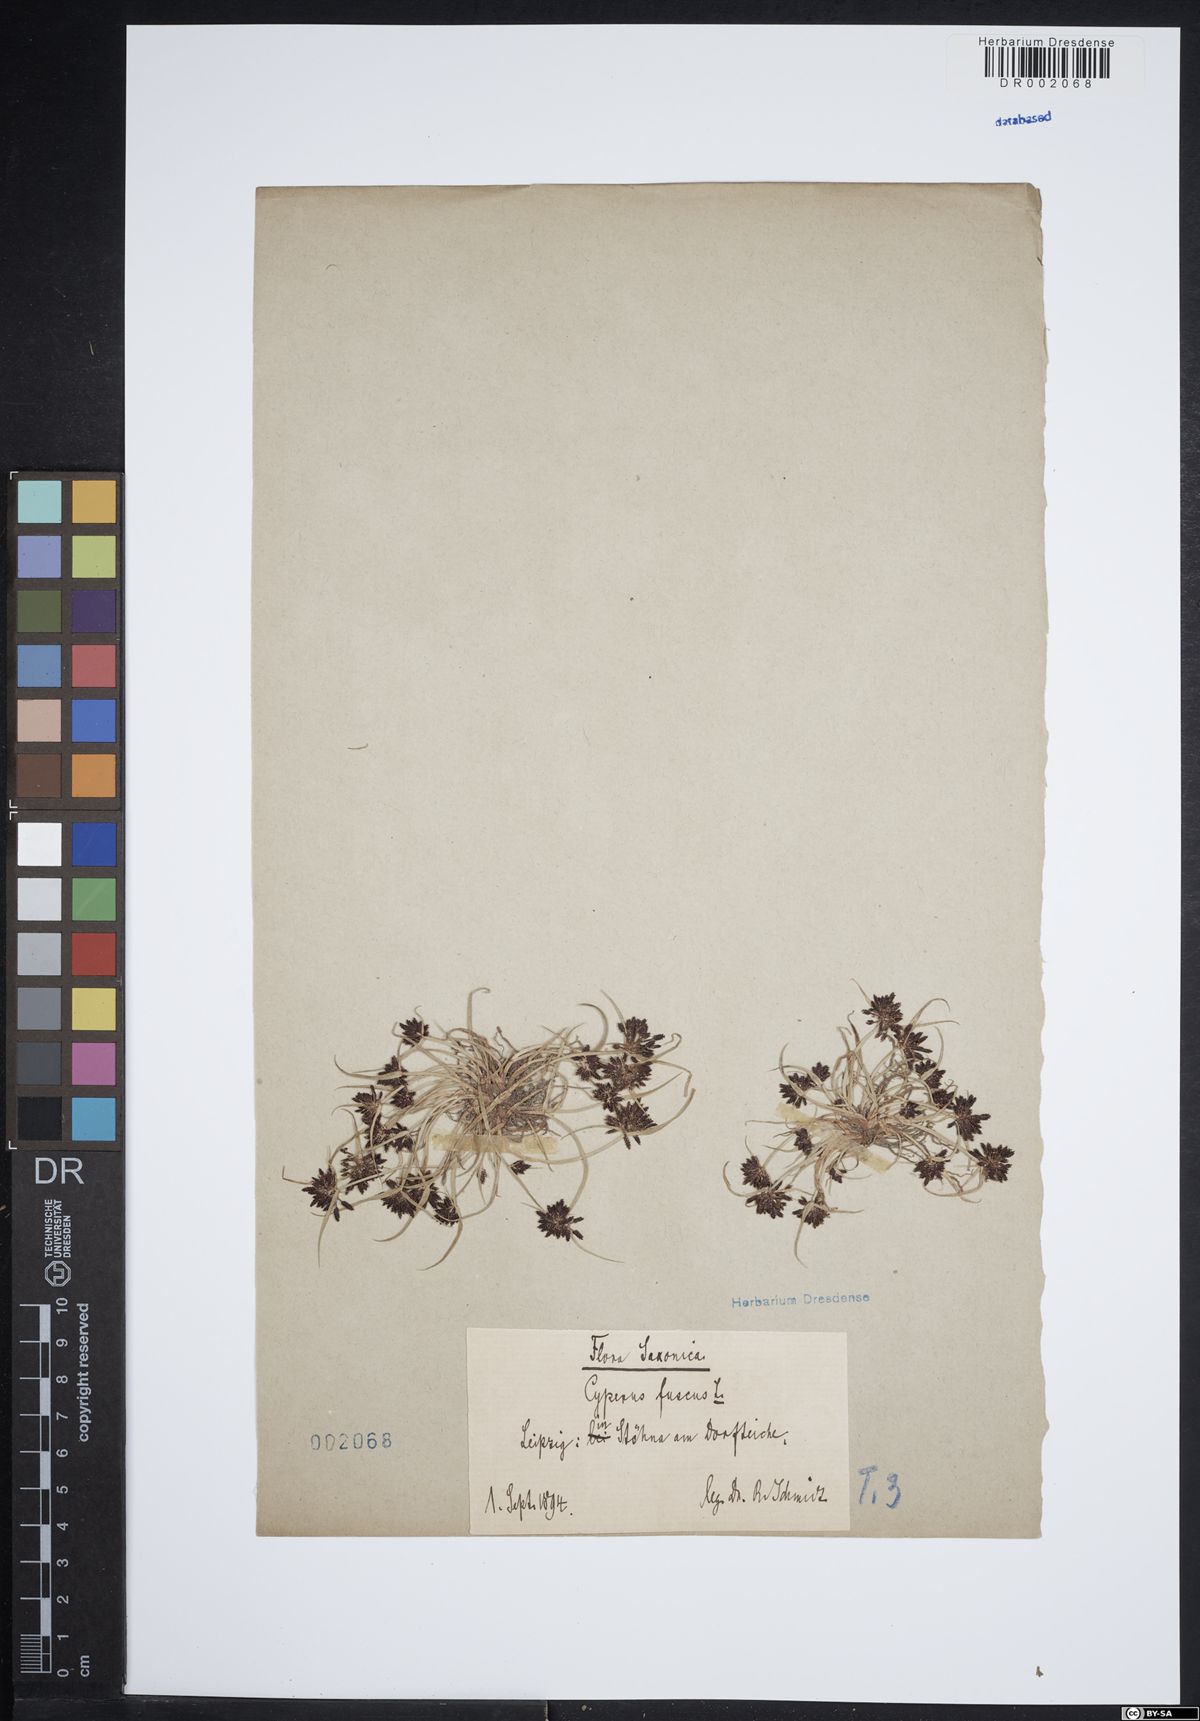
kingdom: Plantae
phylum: Tracheophyta
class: Liliopsida
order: Poales
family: Cyperaceae
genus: Cyperus
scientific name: Cyperus fuscus
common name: Brown galingale
